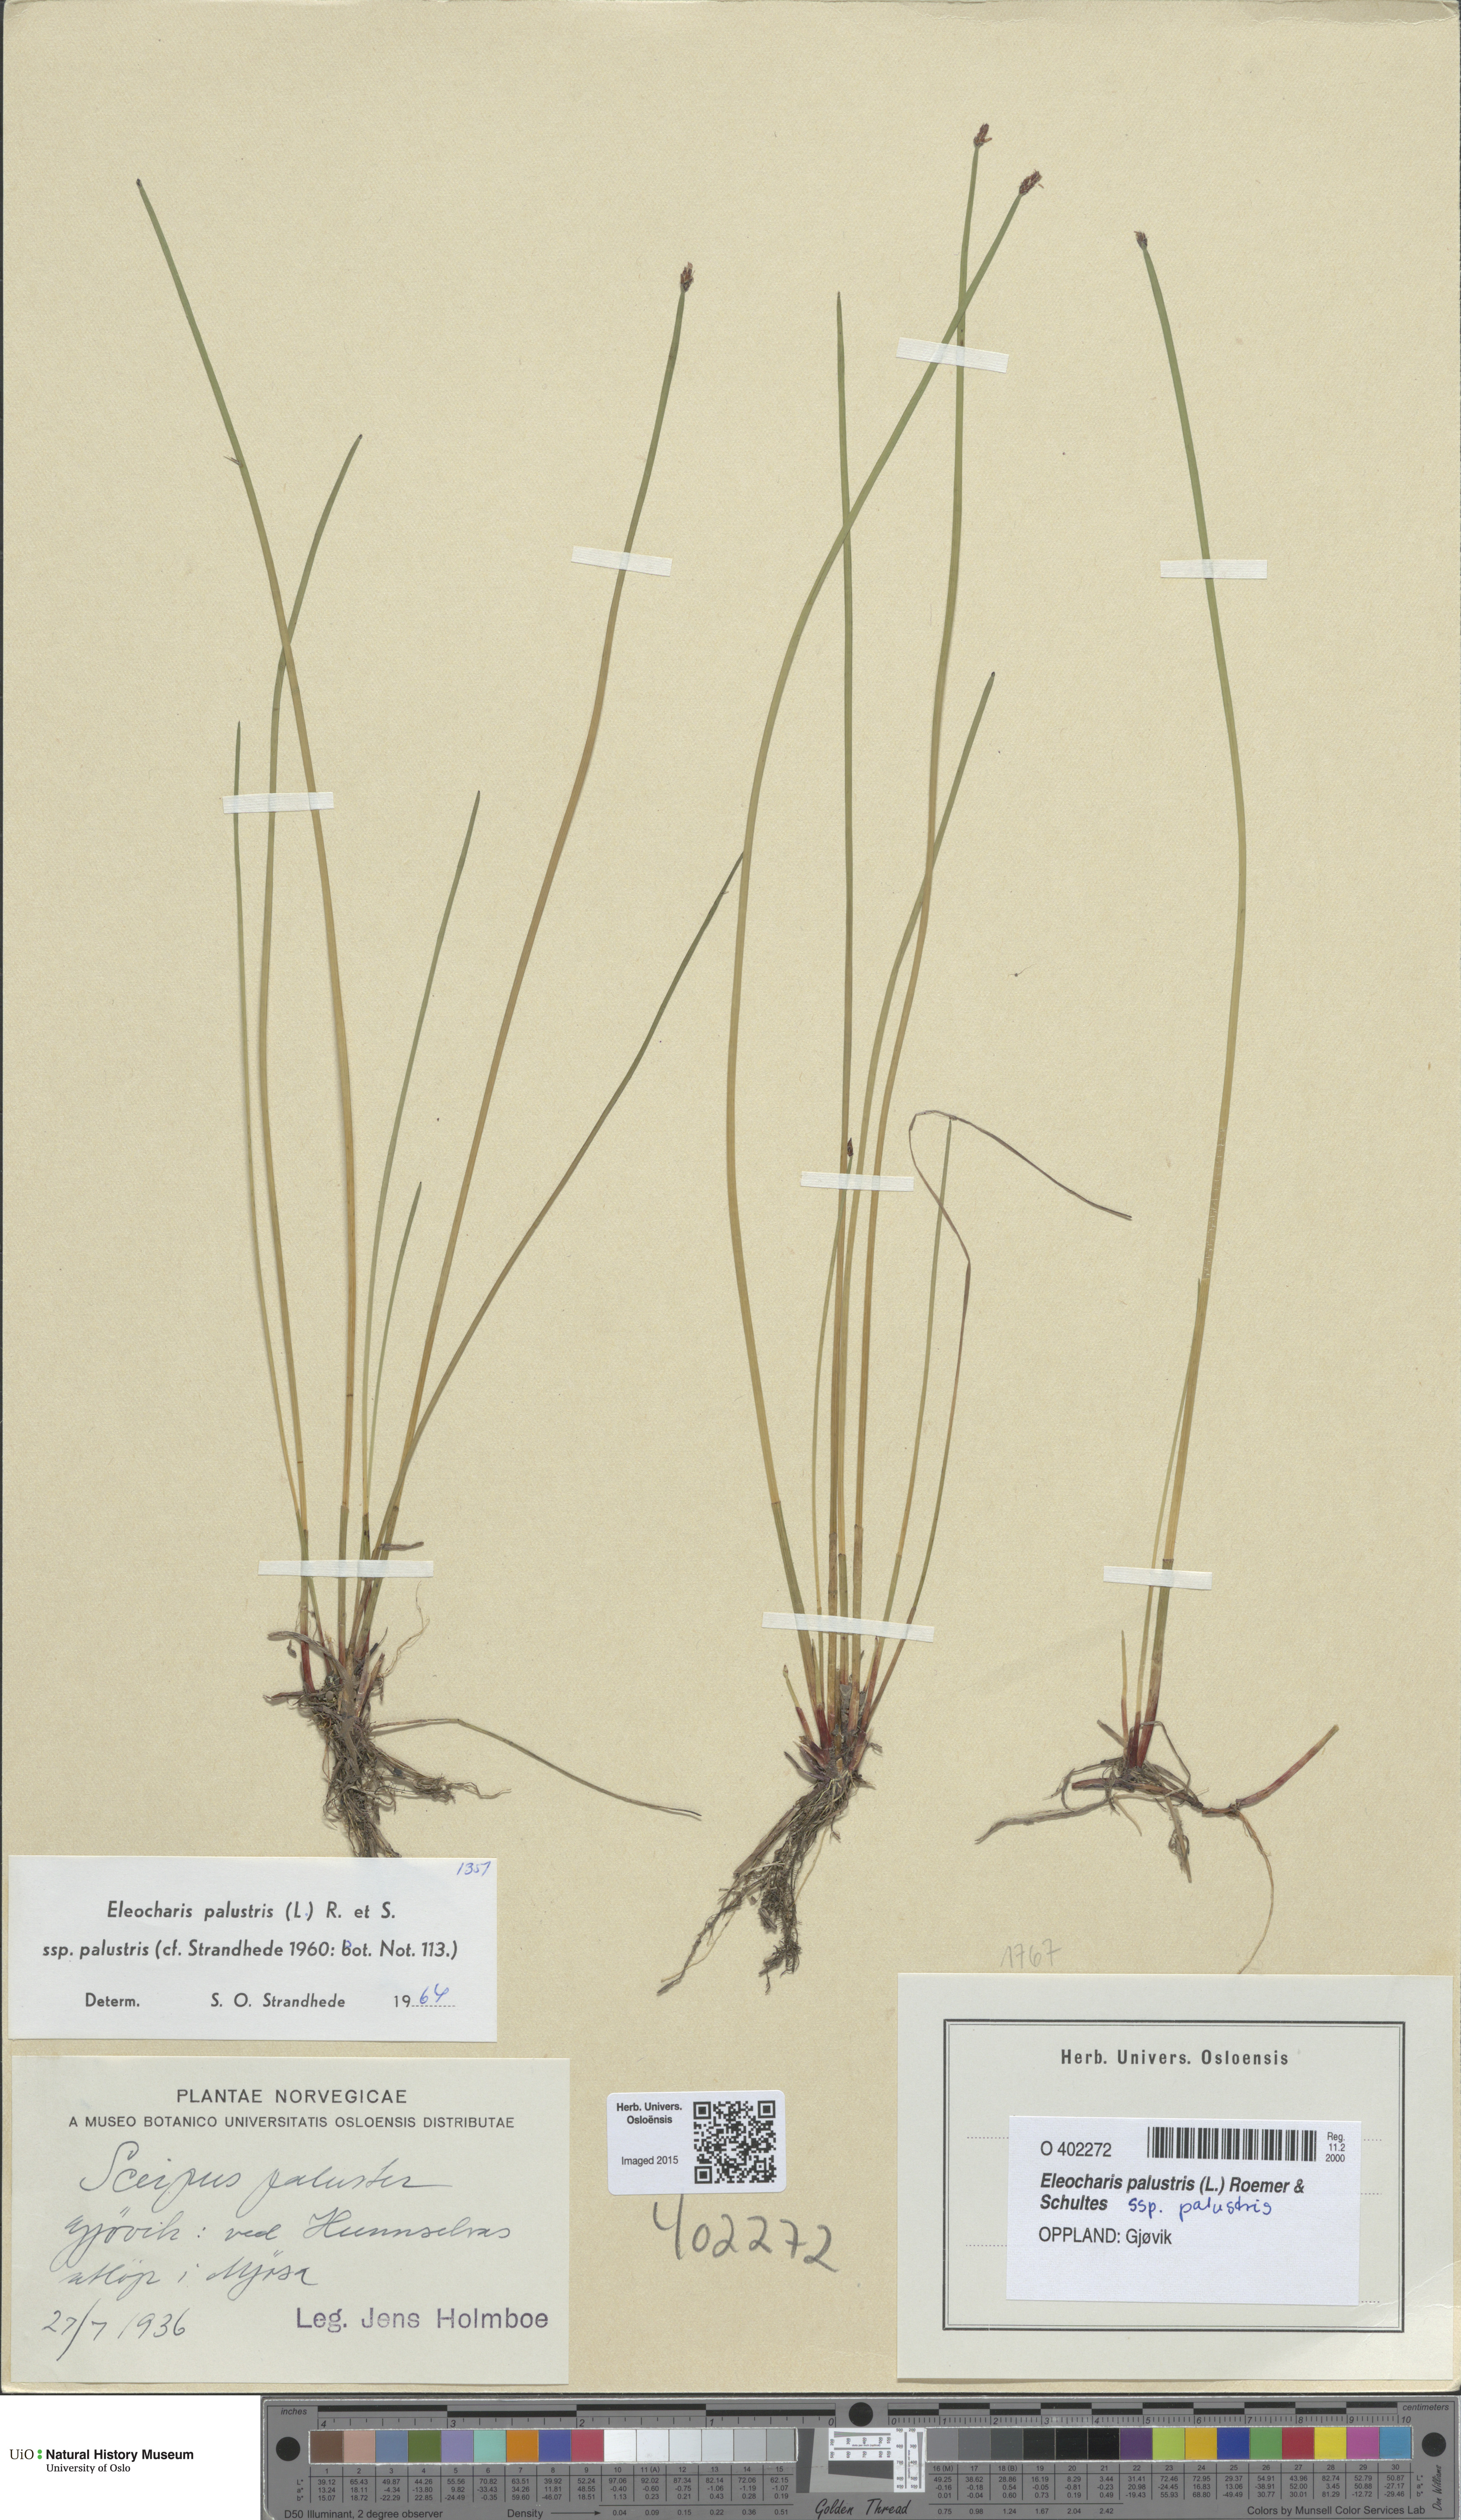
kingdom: Plantae
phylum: Tracheophyta
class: Liliopsida
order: Poales
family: Cyperaceae
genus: Eleocharis
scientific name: Eleocharis palustris
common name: Common spike-rush
